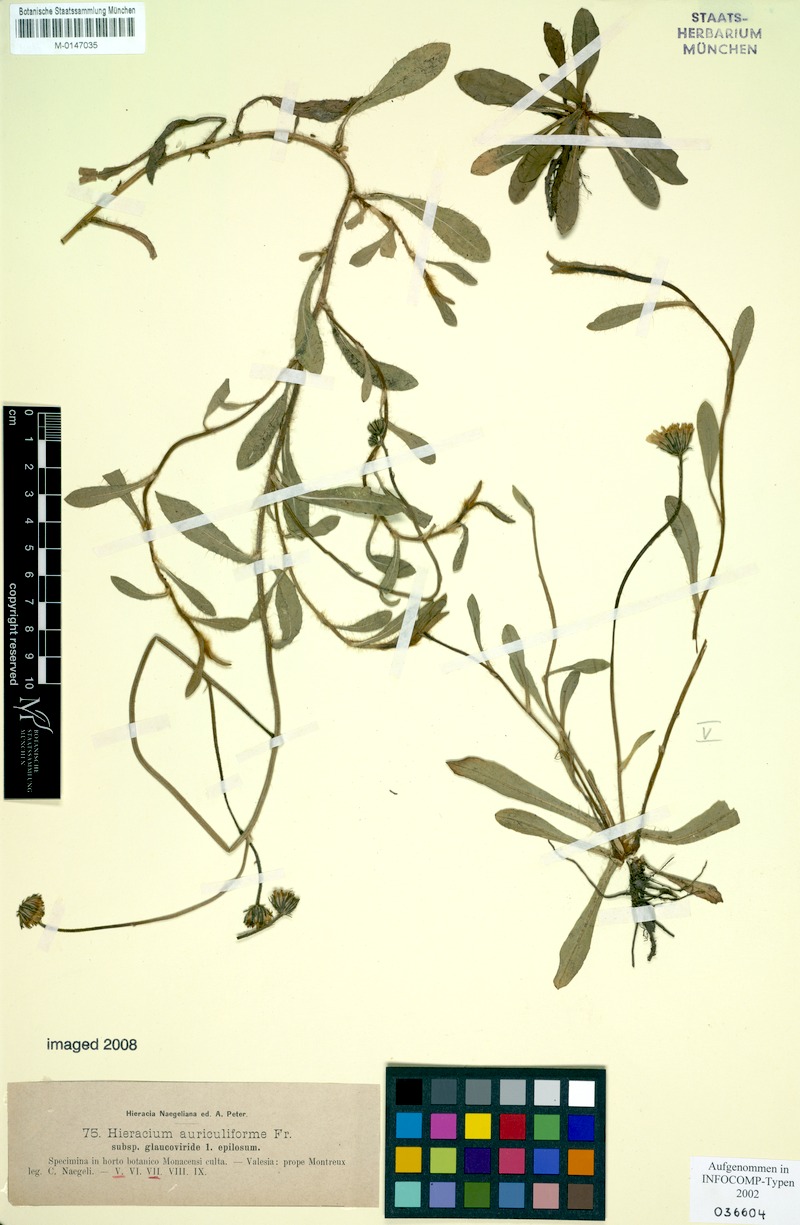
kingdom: Plantae
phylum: Tracheophyta
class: Magnoliopsida
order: Asterales
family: Asteraceae
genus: Pilosella
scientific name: Pilosella auriculiformis
